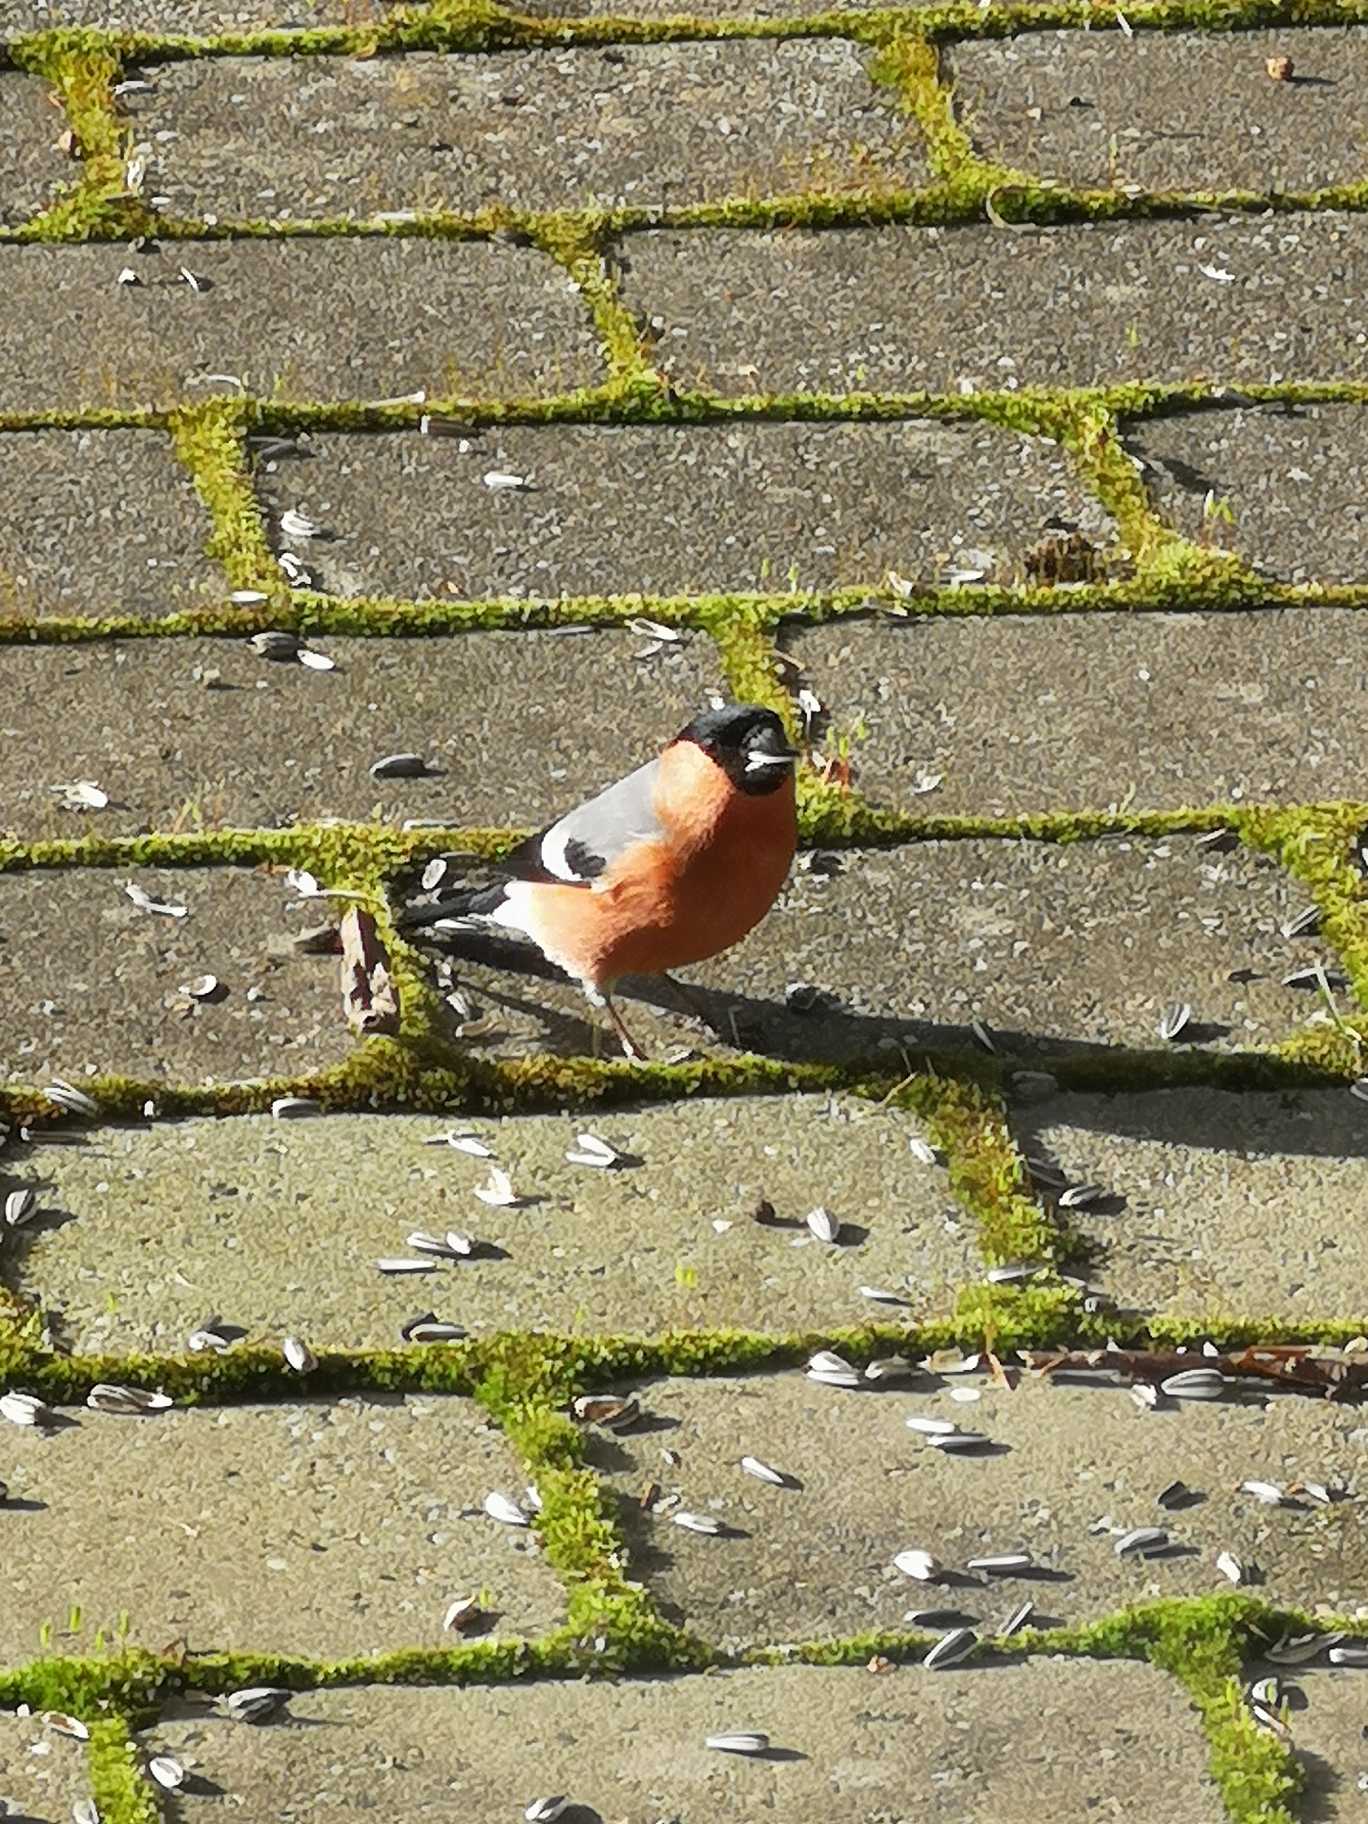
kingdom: Animalia
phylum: Chordata
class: Aves
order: Passeriformes
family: Fringillidae
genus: Pyrrhula
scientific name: Pyrrhula pyrrhula
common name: Dompap
